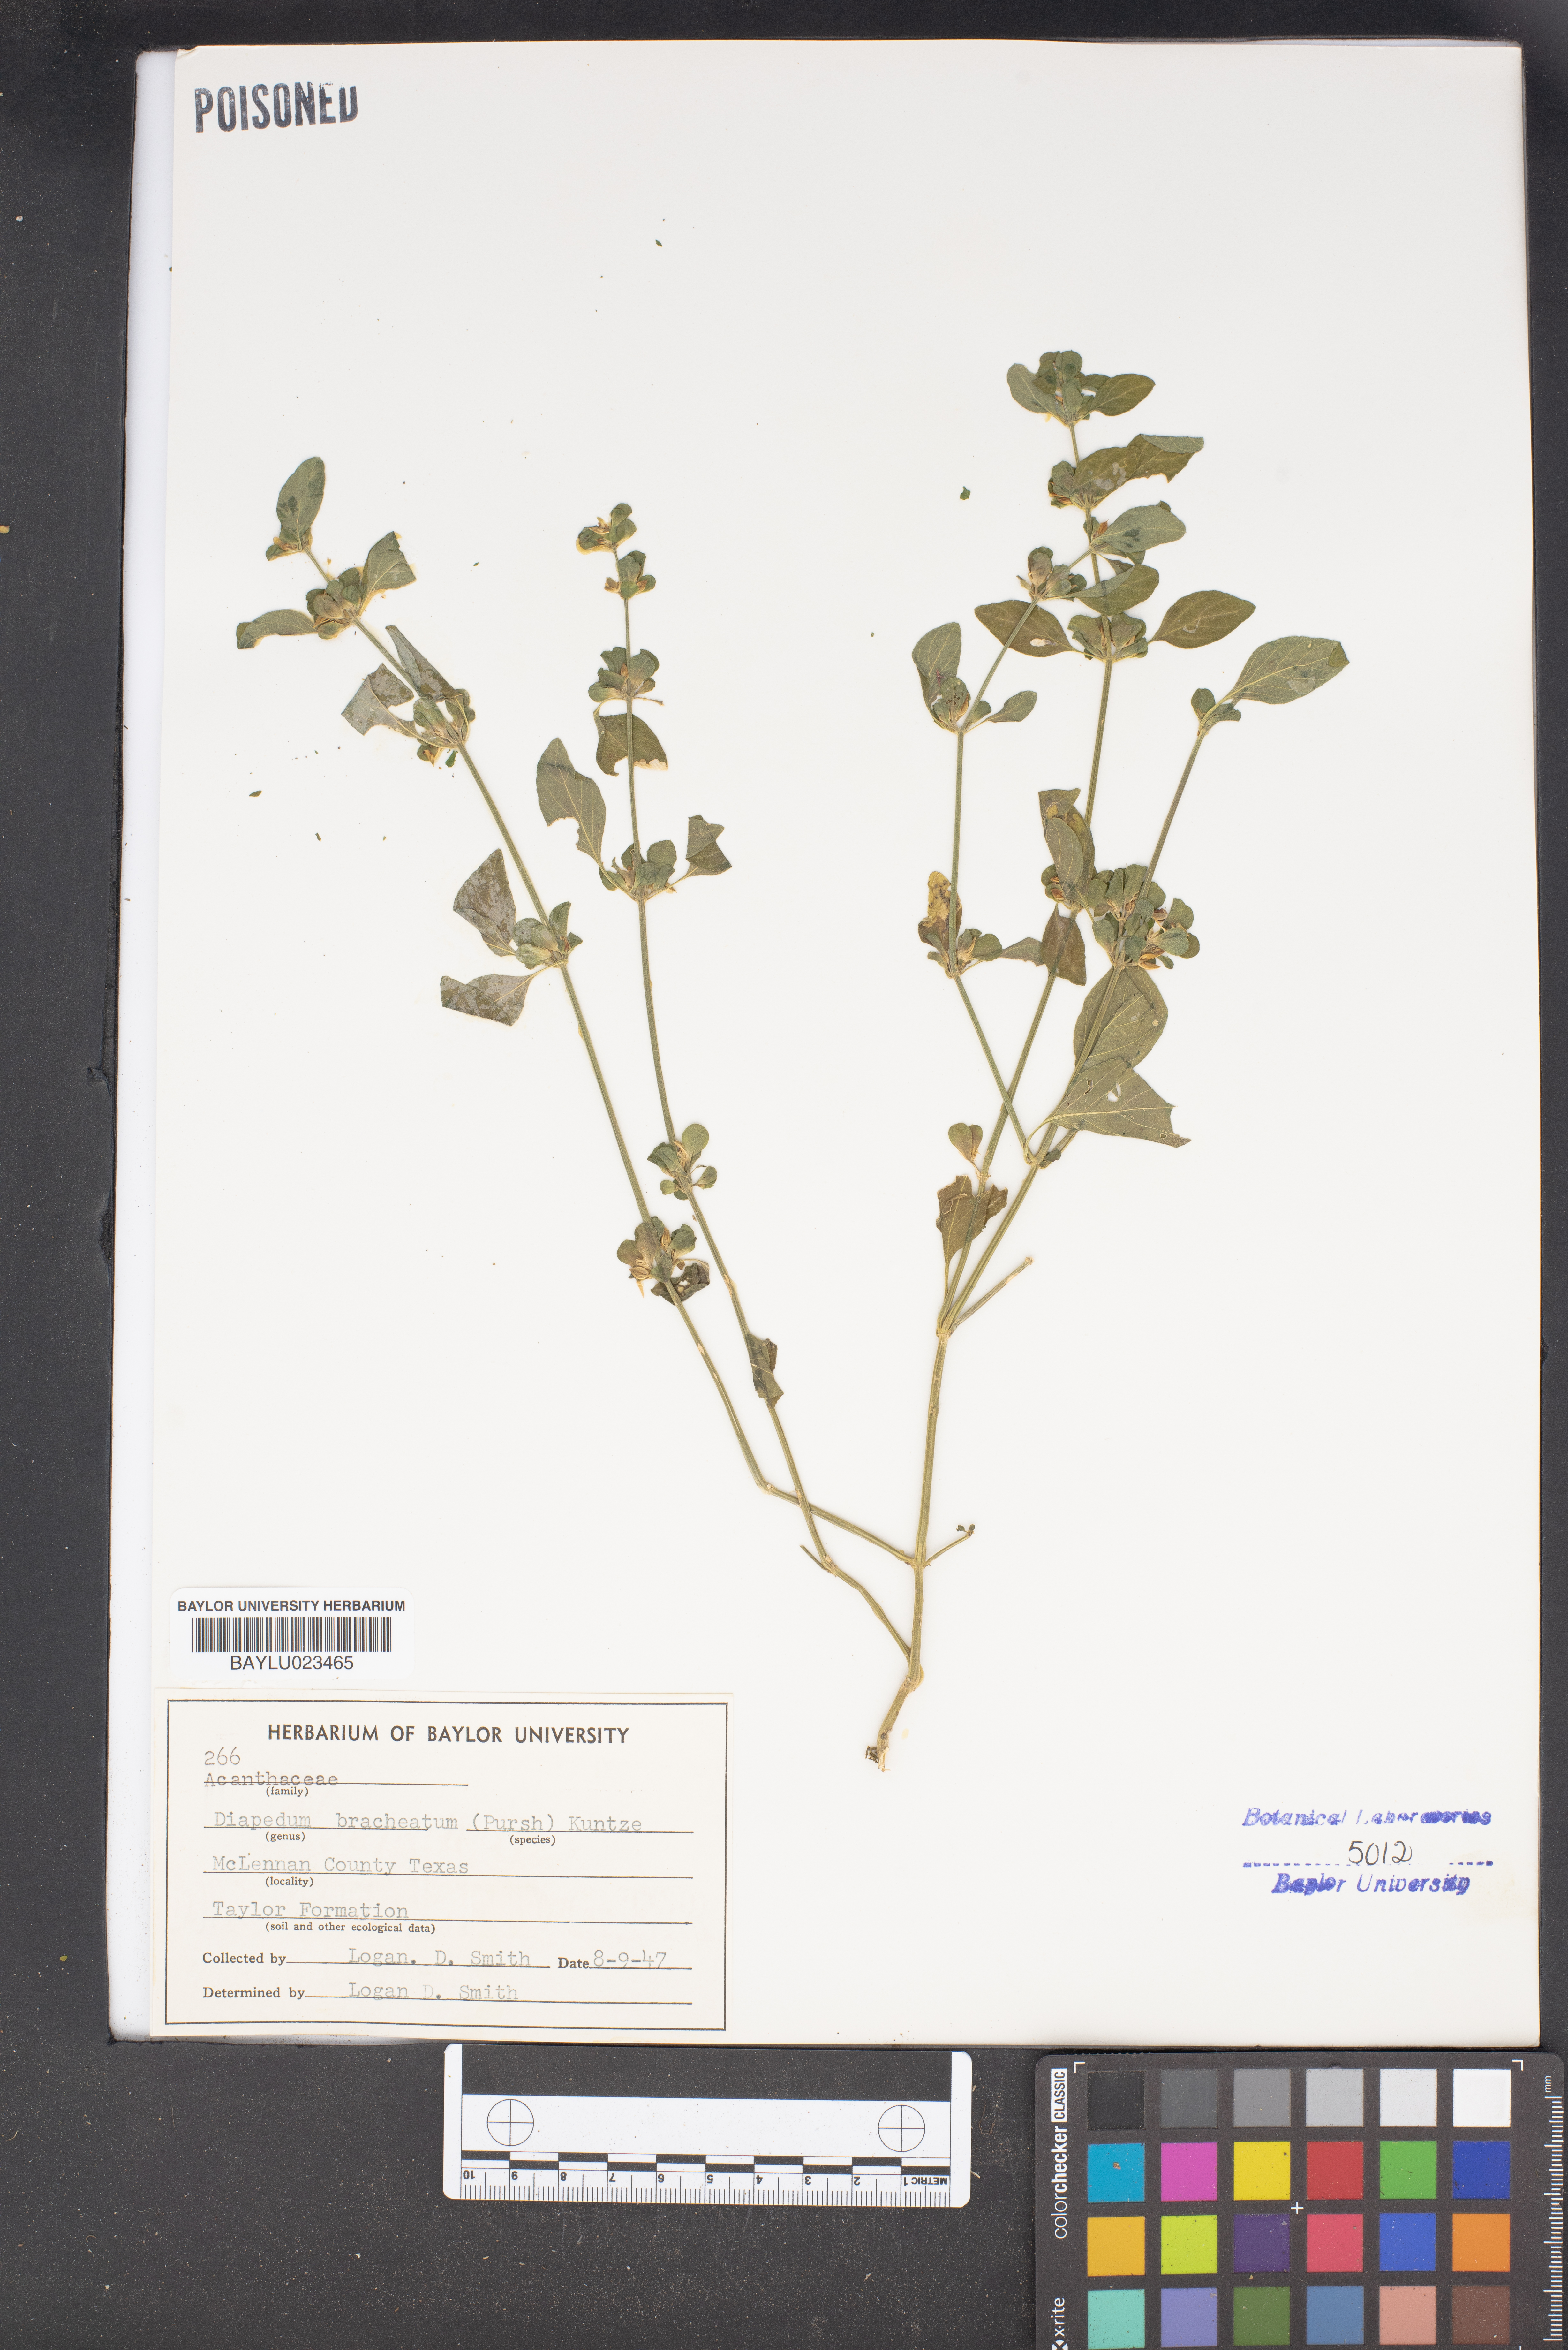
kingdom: Plantae
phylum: Tracheophyta
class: Magnoliopsida
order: Lamiales
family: Acanthaceae
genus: Dicliptera
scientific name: Dicliptera brachiata
